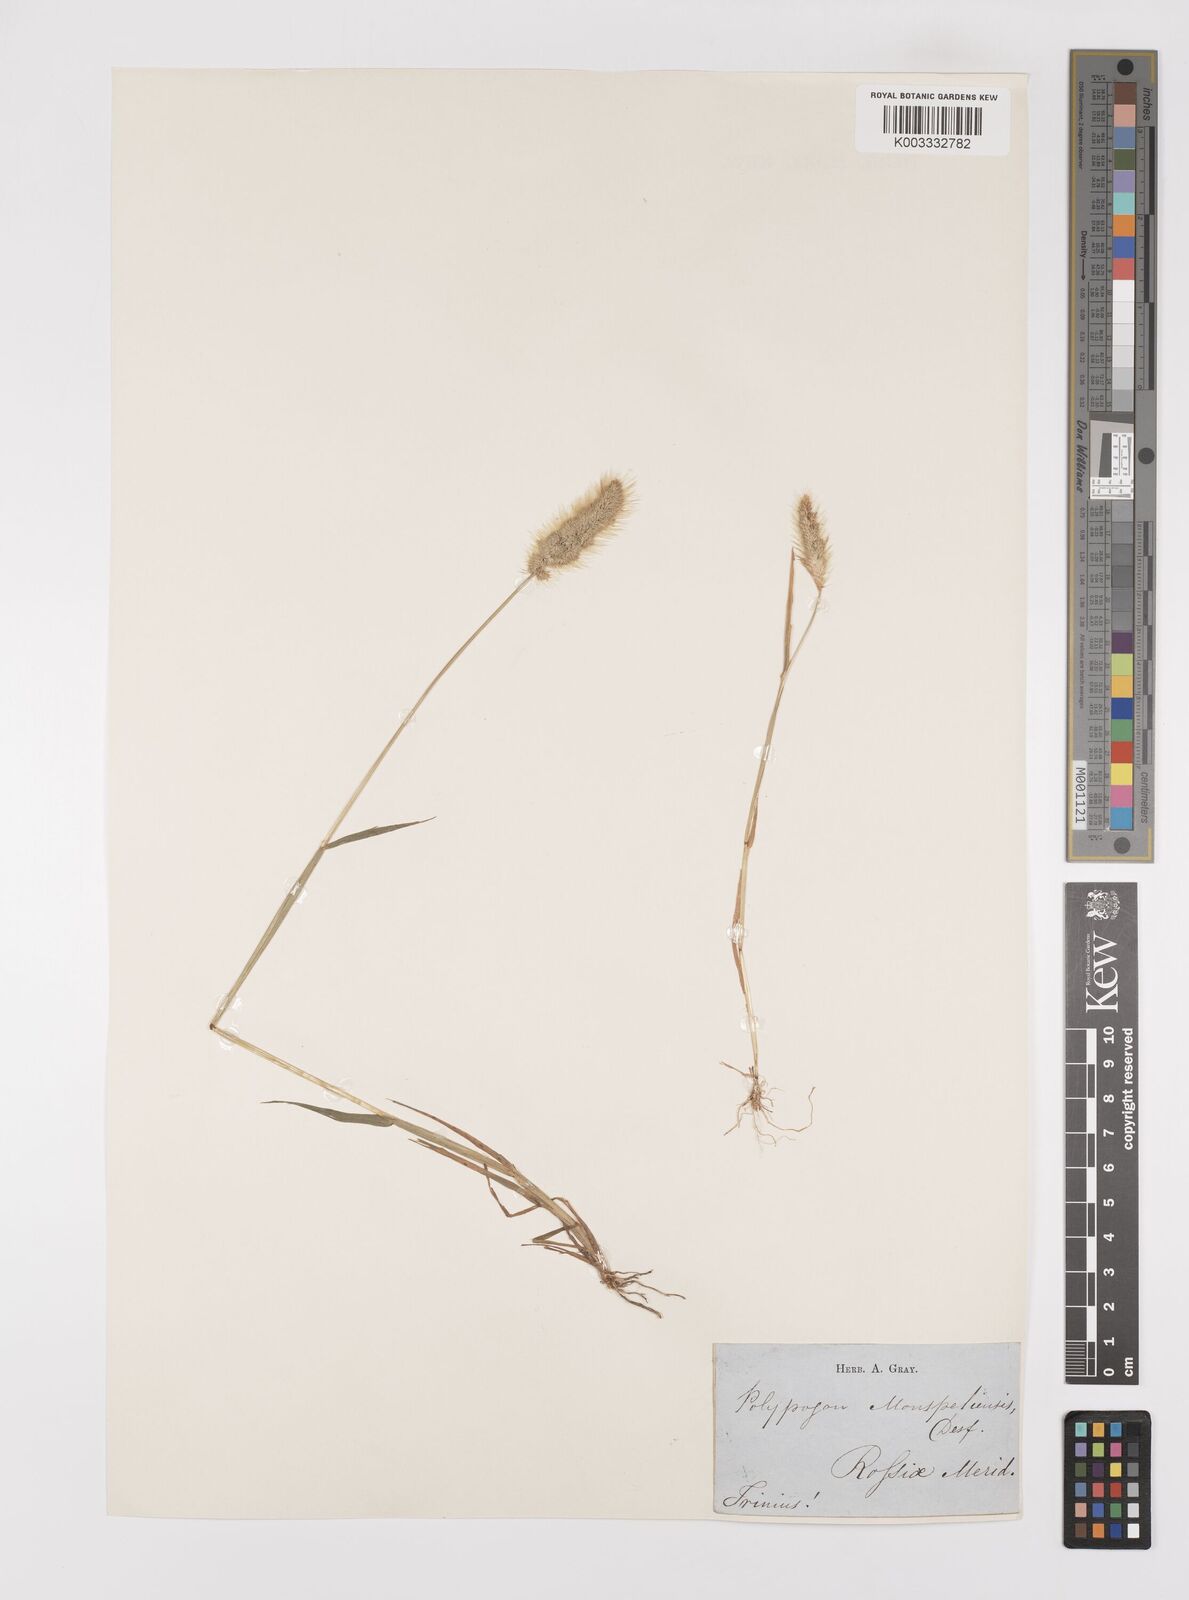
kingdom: Plantae
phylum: Tracheophyta
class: Liliopsida
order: Poales
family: Poaceae
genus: Polypogon
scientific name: Polypogon monspeliensis
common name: Annual rabbitsfoot grass
